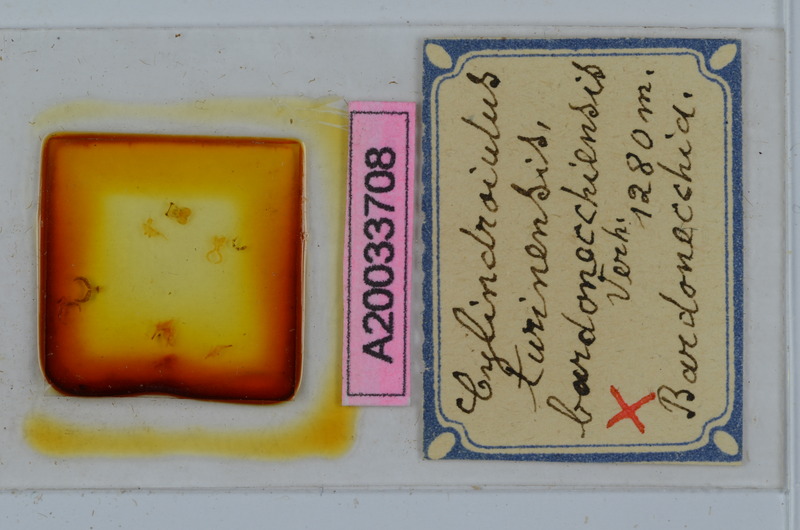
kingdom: Animalia
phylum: Arthropoda
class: Diplopoda
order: Julida
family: Julidae
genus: Cylindroiulus
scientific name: Cylindroiulus turinensis
